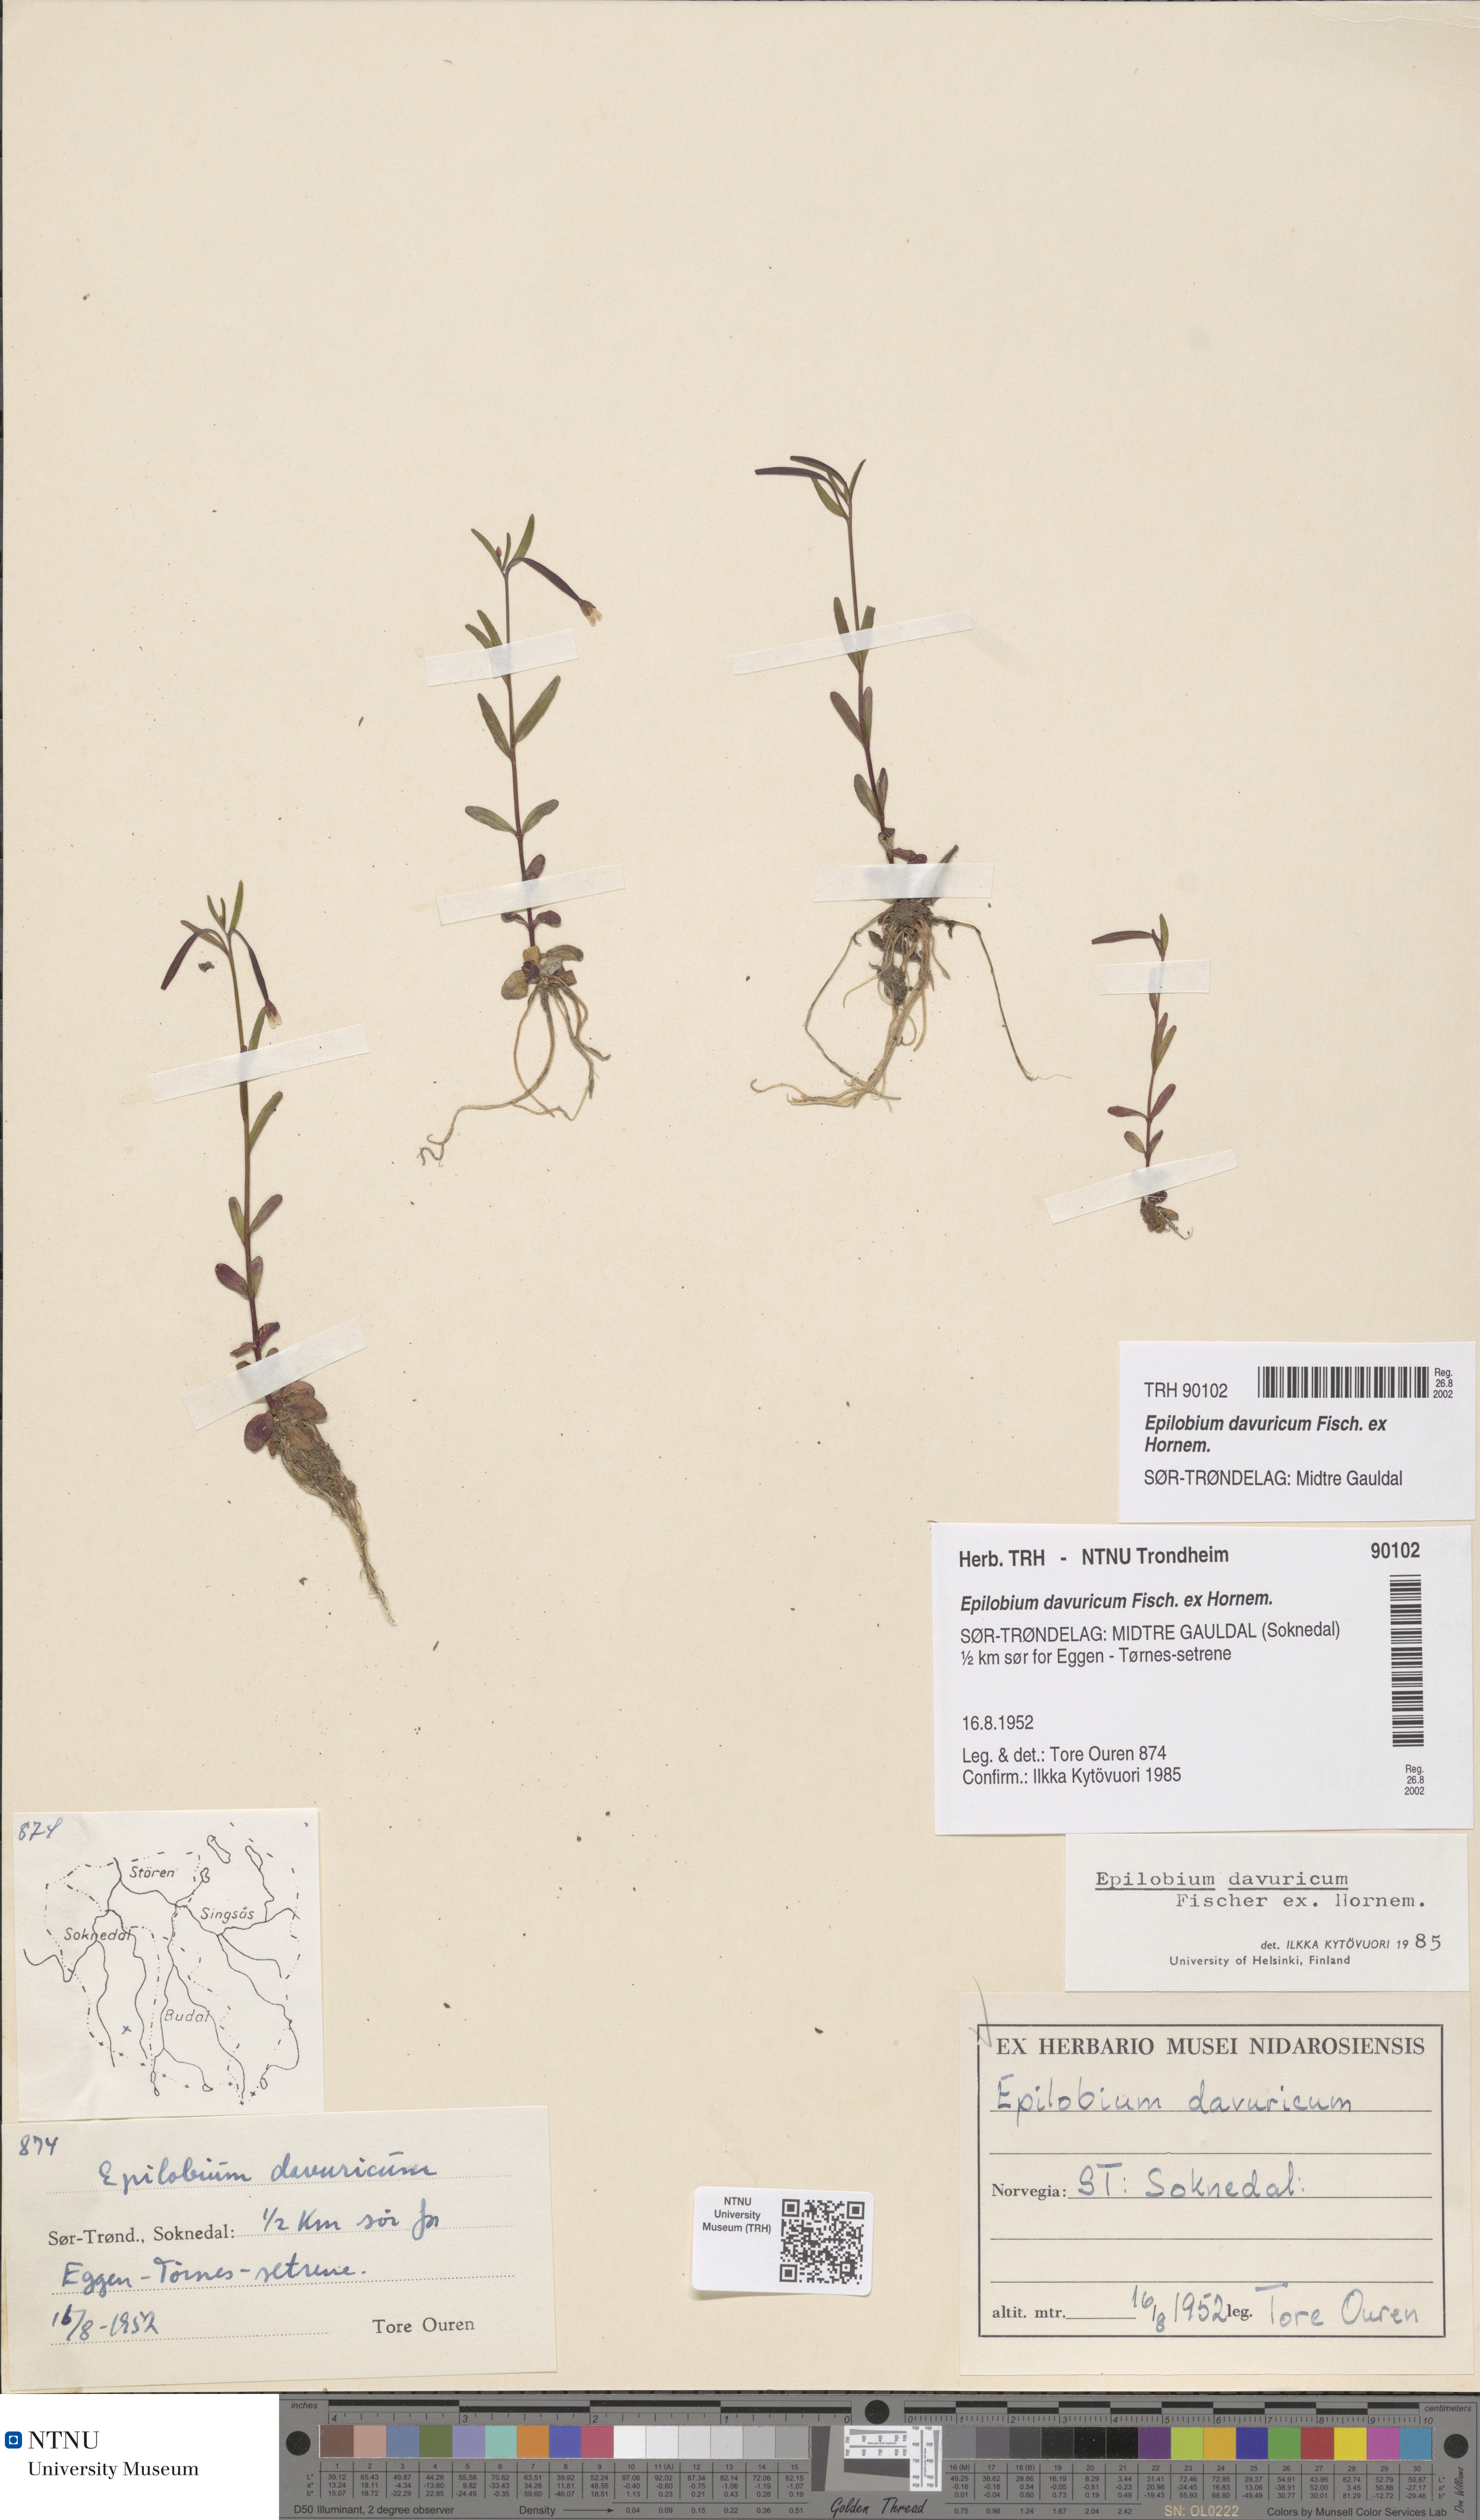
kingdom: Plantae
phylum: Tracheophyta
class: Magnoliopsida
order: Myrtales
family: Onagraceae
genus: Epilobium
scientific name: Epilobium davuricum
